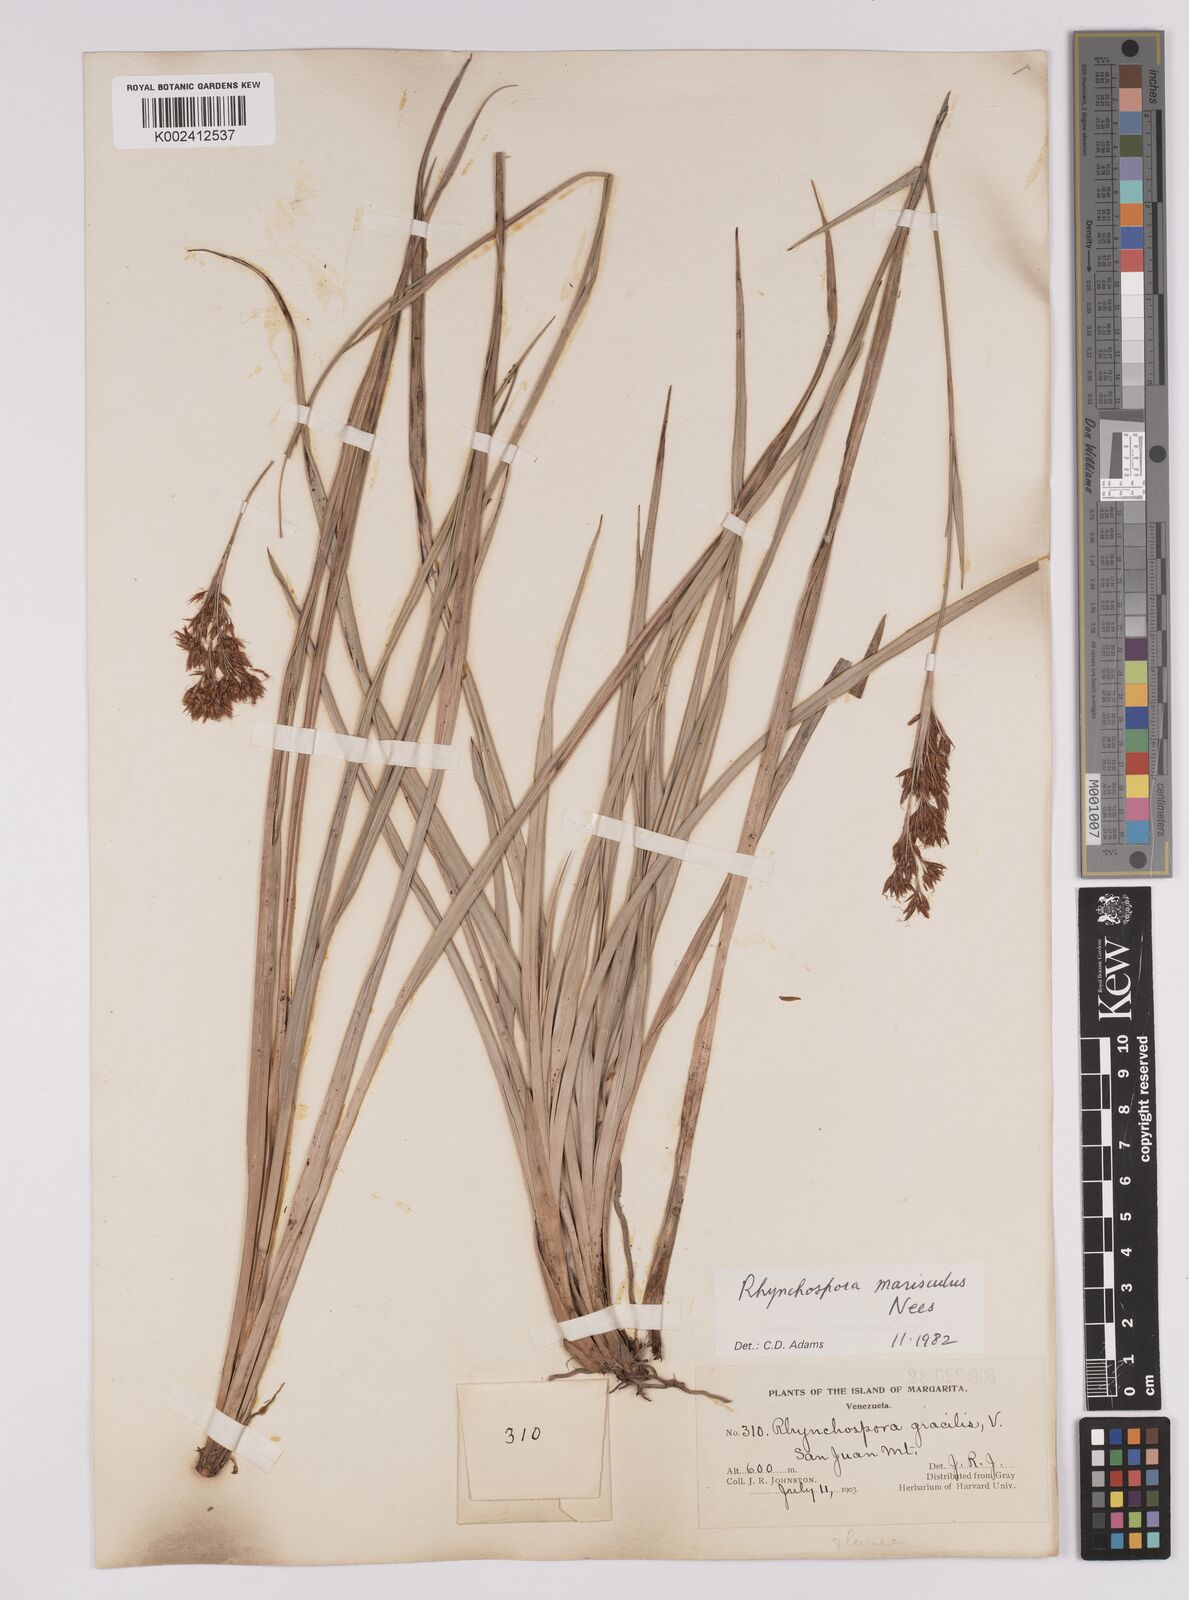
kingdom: Plantae
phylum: Tracheophyta
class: Liliopsida
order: Poales
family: Cyperaceae
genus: Rhynchospora
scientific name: Rhynchospora marisculus
